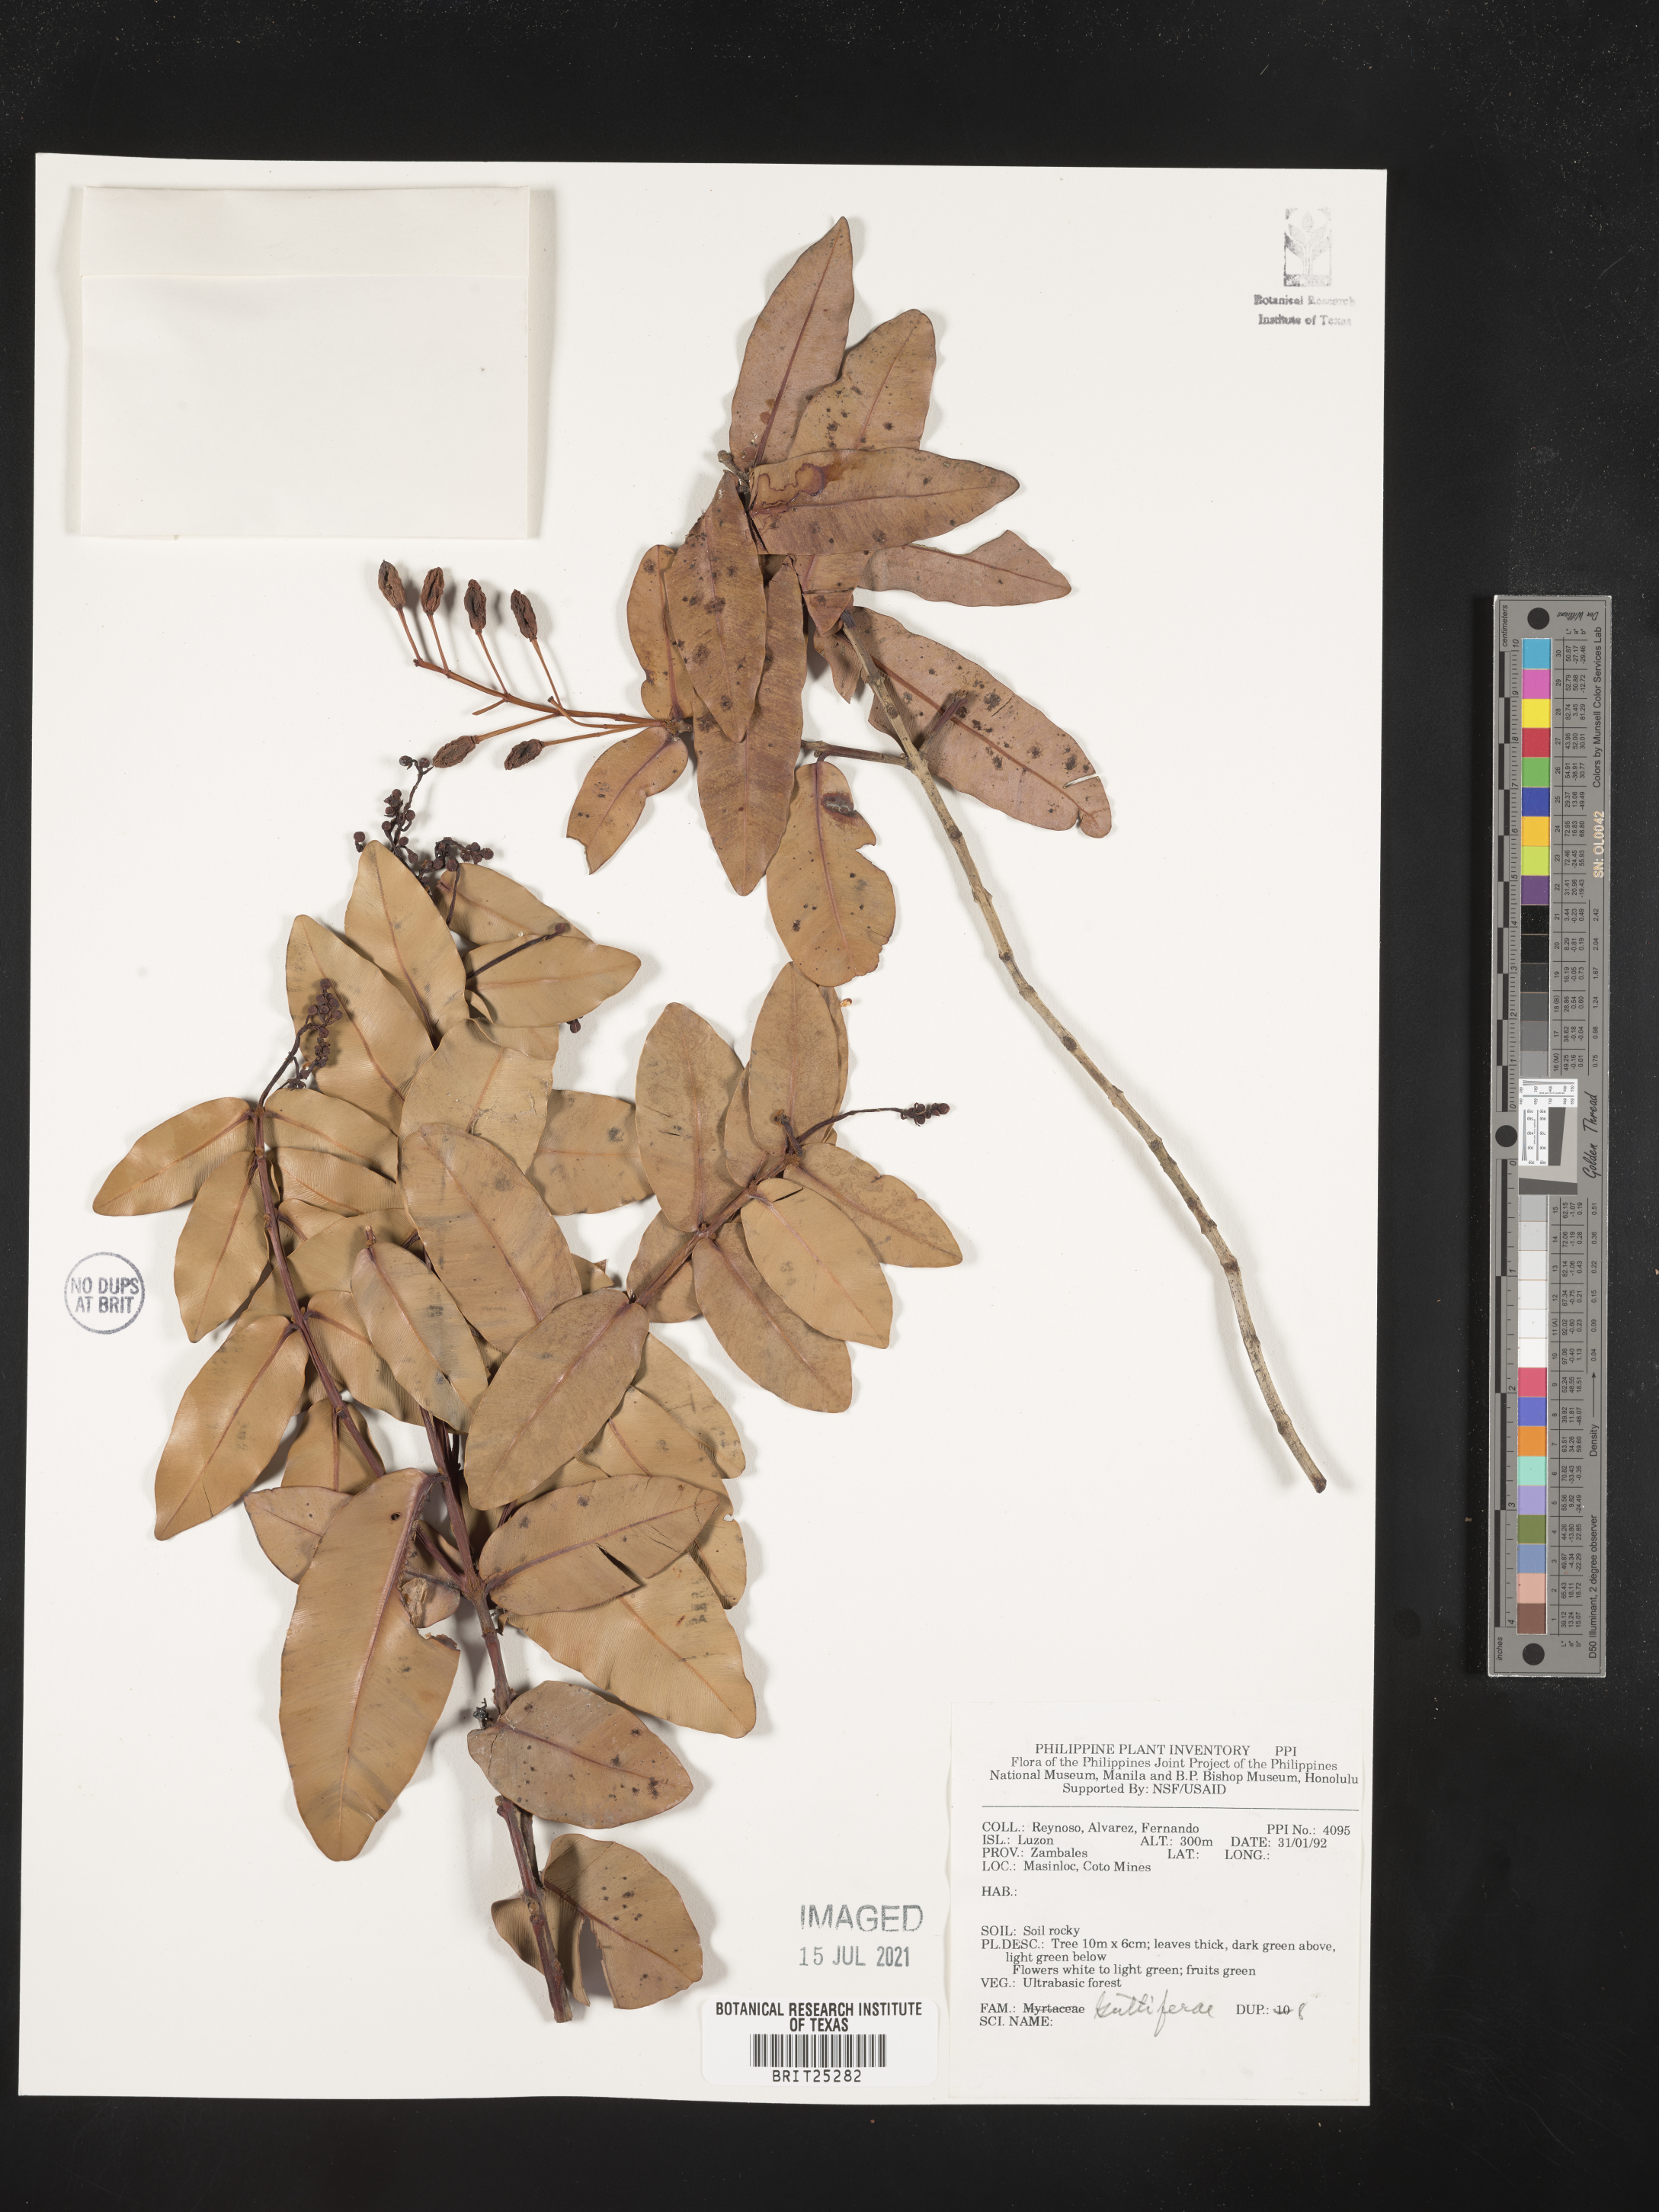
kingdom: Plantae
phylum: Tracheophyta
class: Magnoliopsida
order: Malpighiales
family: Hypericaceae
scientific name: Hypericaceae
